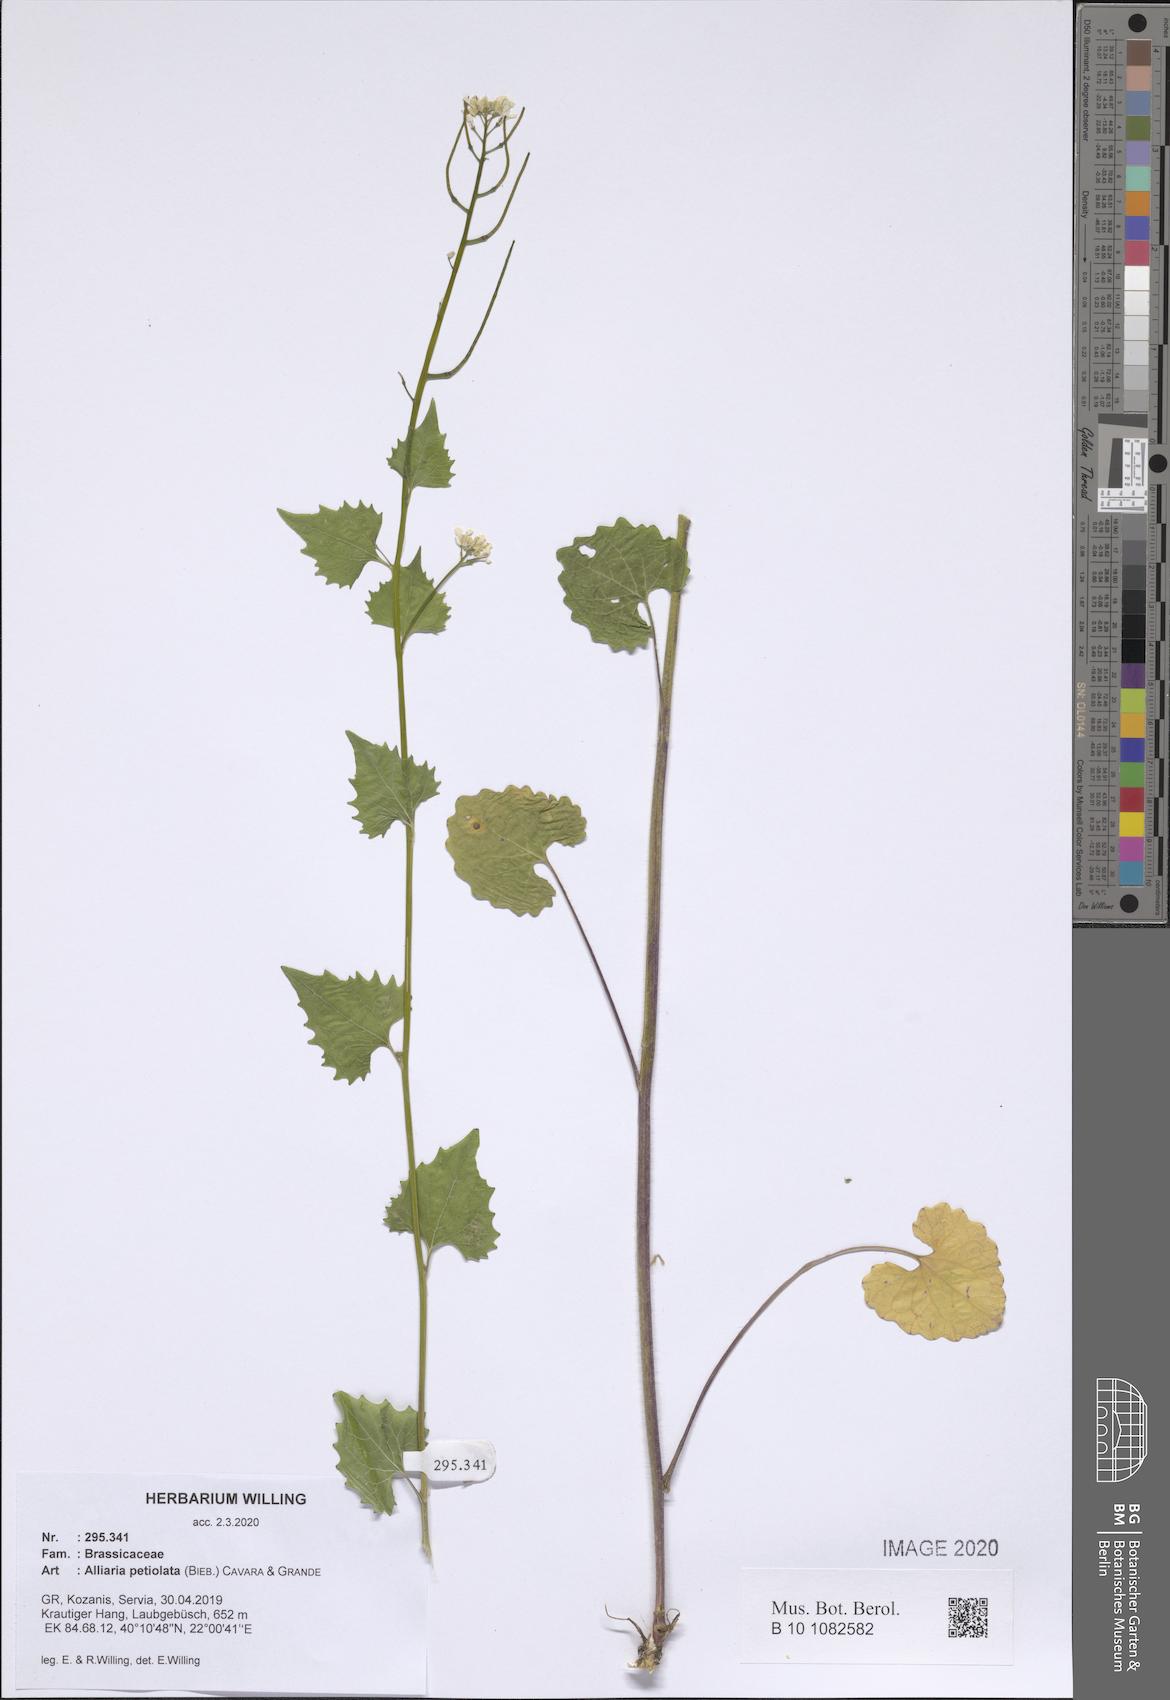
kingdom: Plantae
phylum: Tracheophyta
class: Magnoliopsida
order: Brassicales
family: Brassicaceae
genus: Alliaria
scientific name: Alliaria petiolata
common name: Garlic mustard
